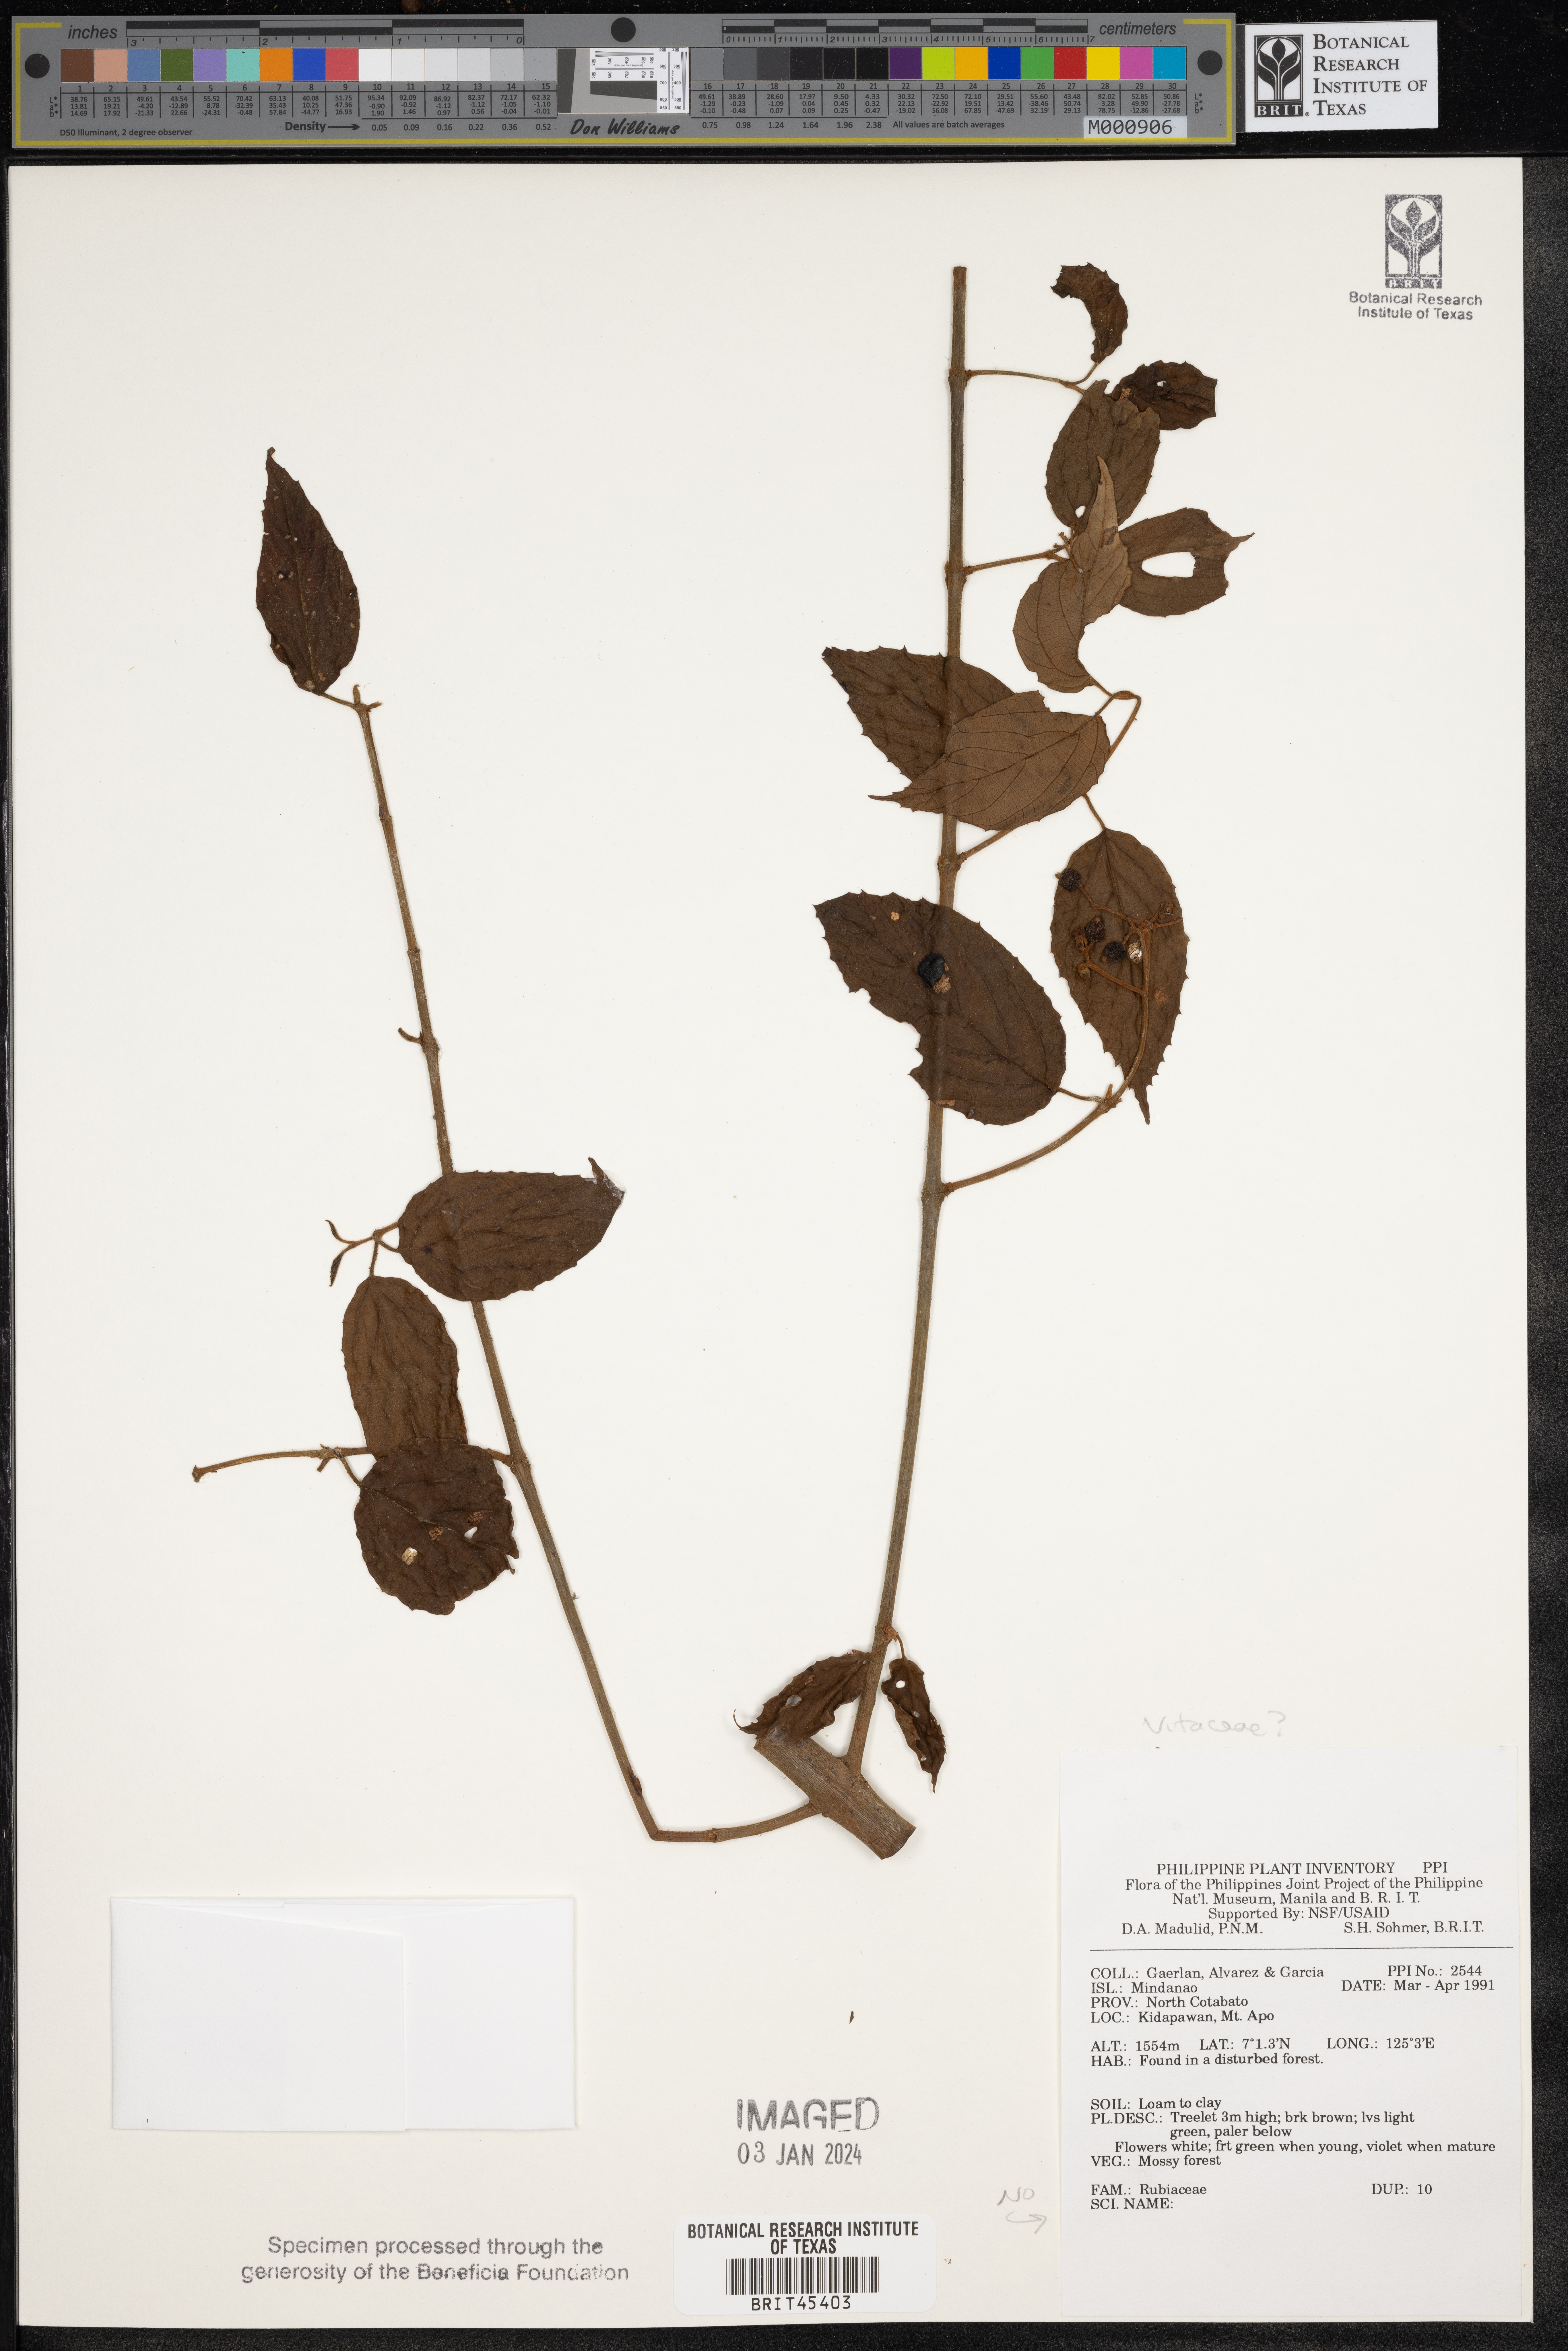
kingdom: Plantae
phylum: Tracheophyta
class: Magnoliopsida
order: Vitales
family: Vitaceae
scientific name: Vitaceae
